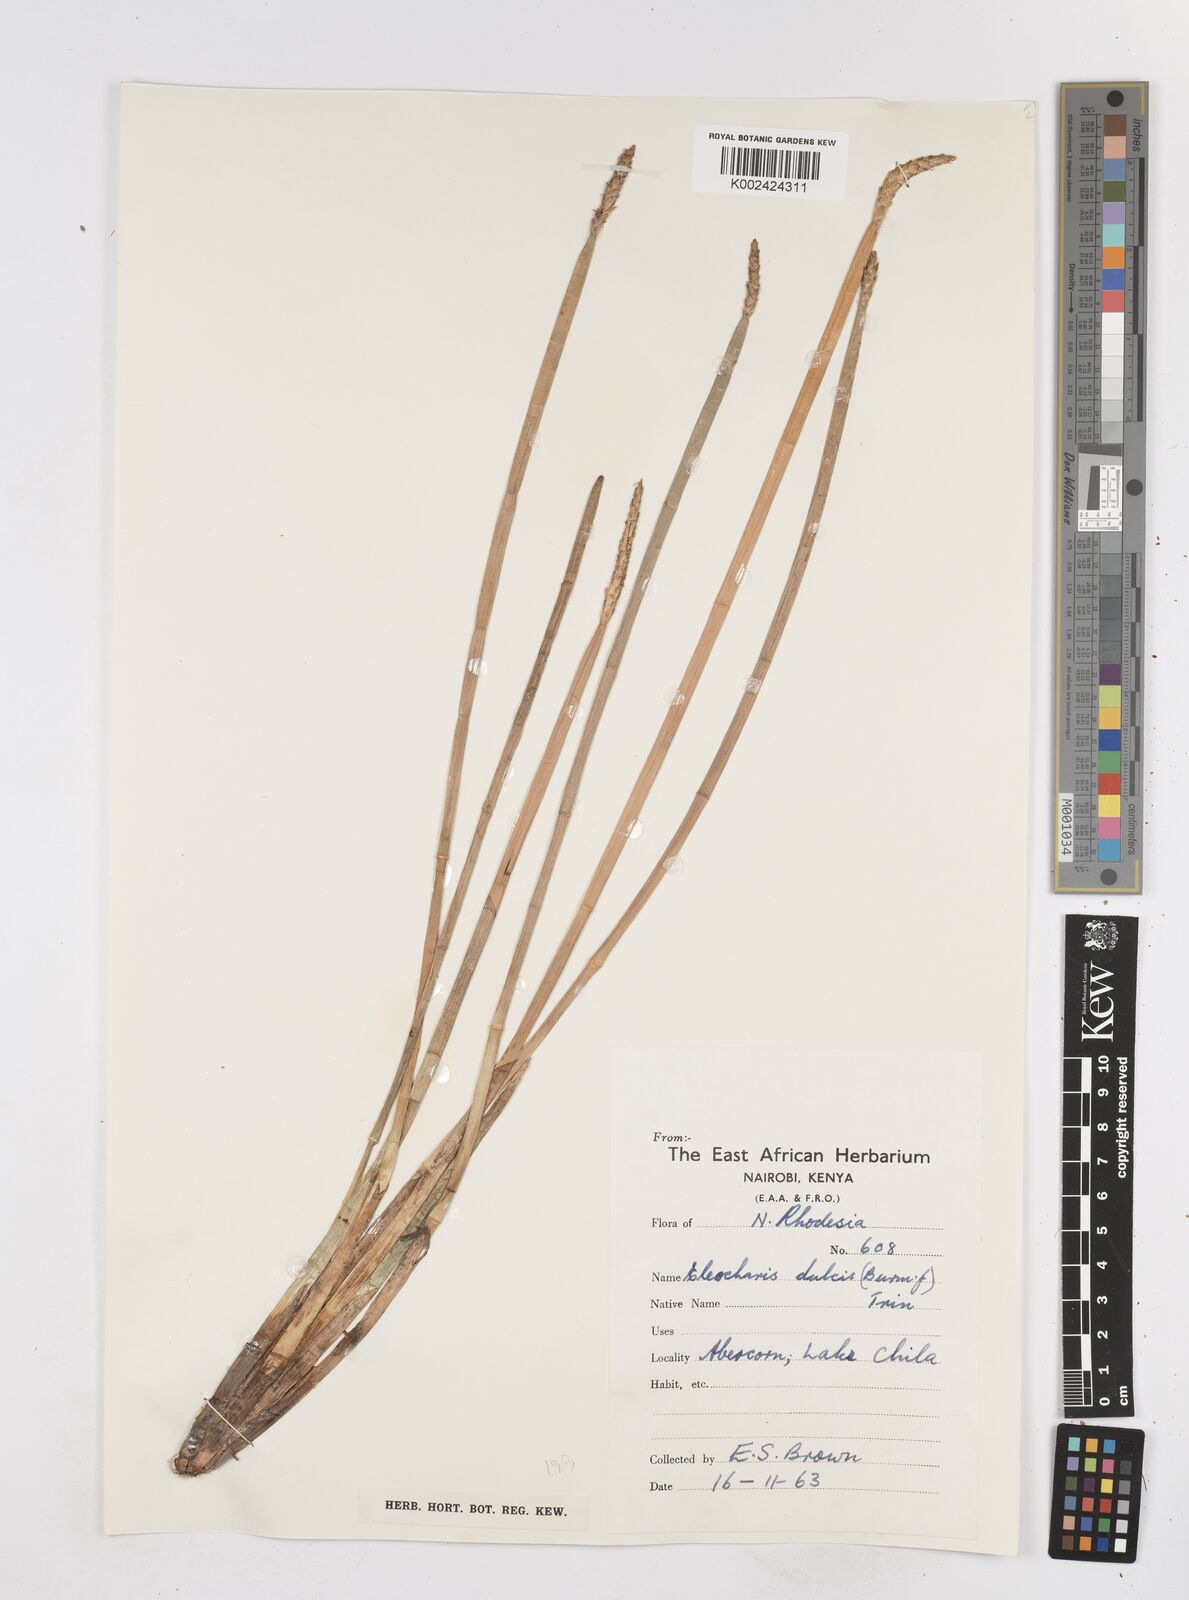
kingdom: Plantae
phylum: Tracheophyta
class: Liliopsida
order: Poales
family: Cyperaceae
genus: Eleocharis
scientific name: Eleocharis dulcis
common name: Chinese water chestnut
